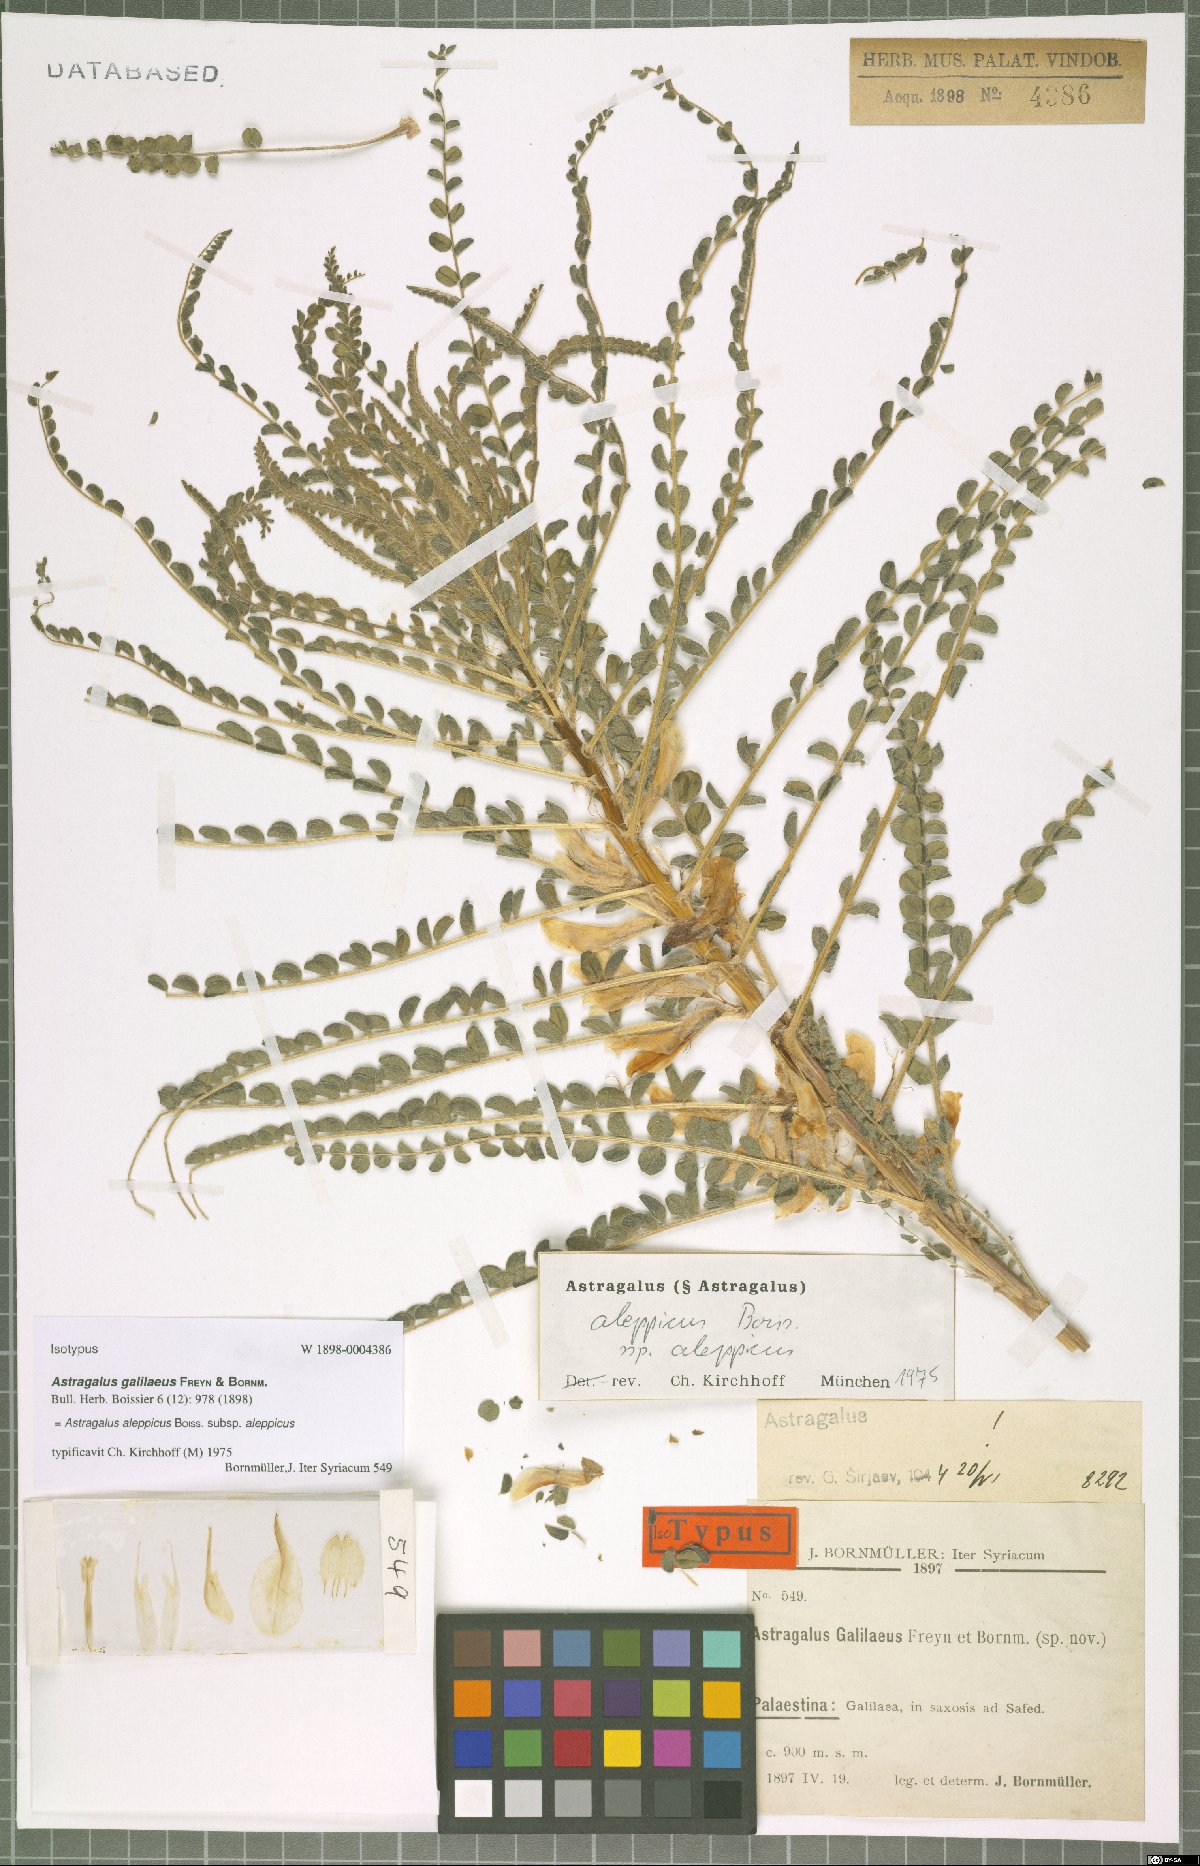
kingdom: Plantae
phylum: Tracheophyta
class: Magnoliopsida
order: Fabales
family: Fabaceae
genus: Astragalus
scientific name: Astragalus aleppicus
